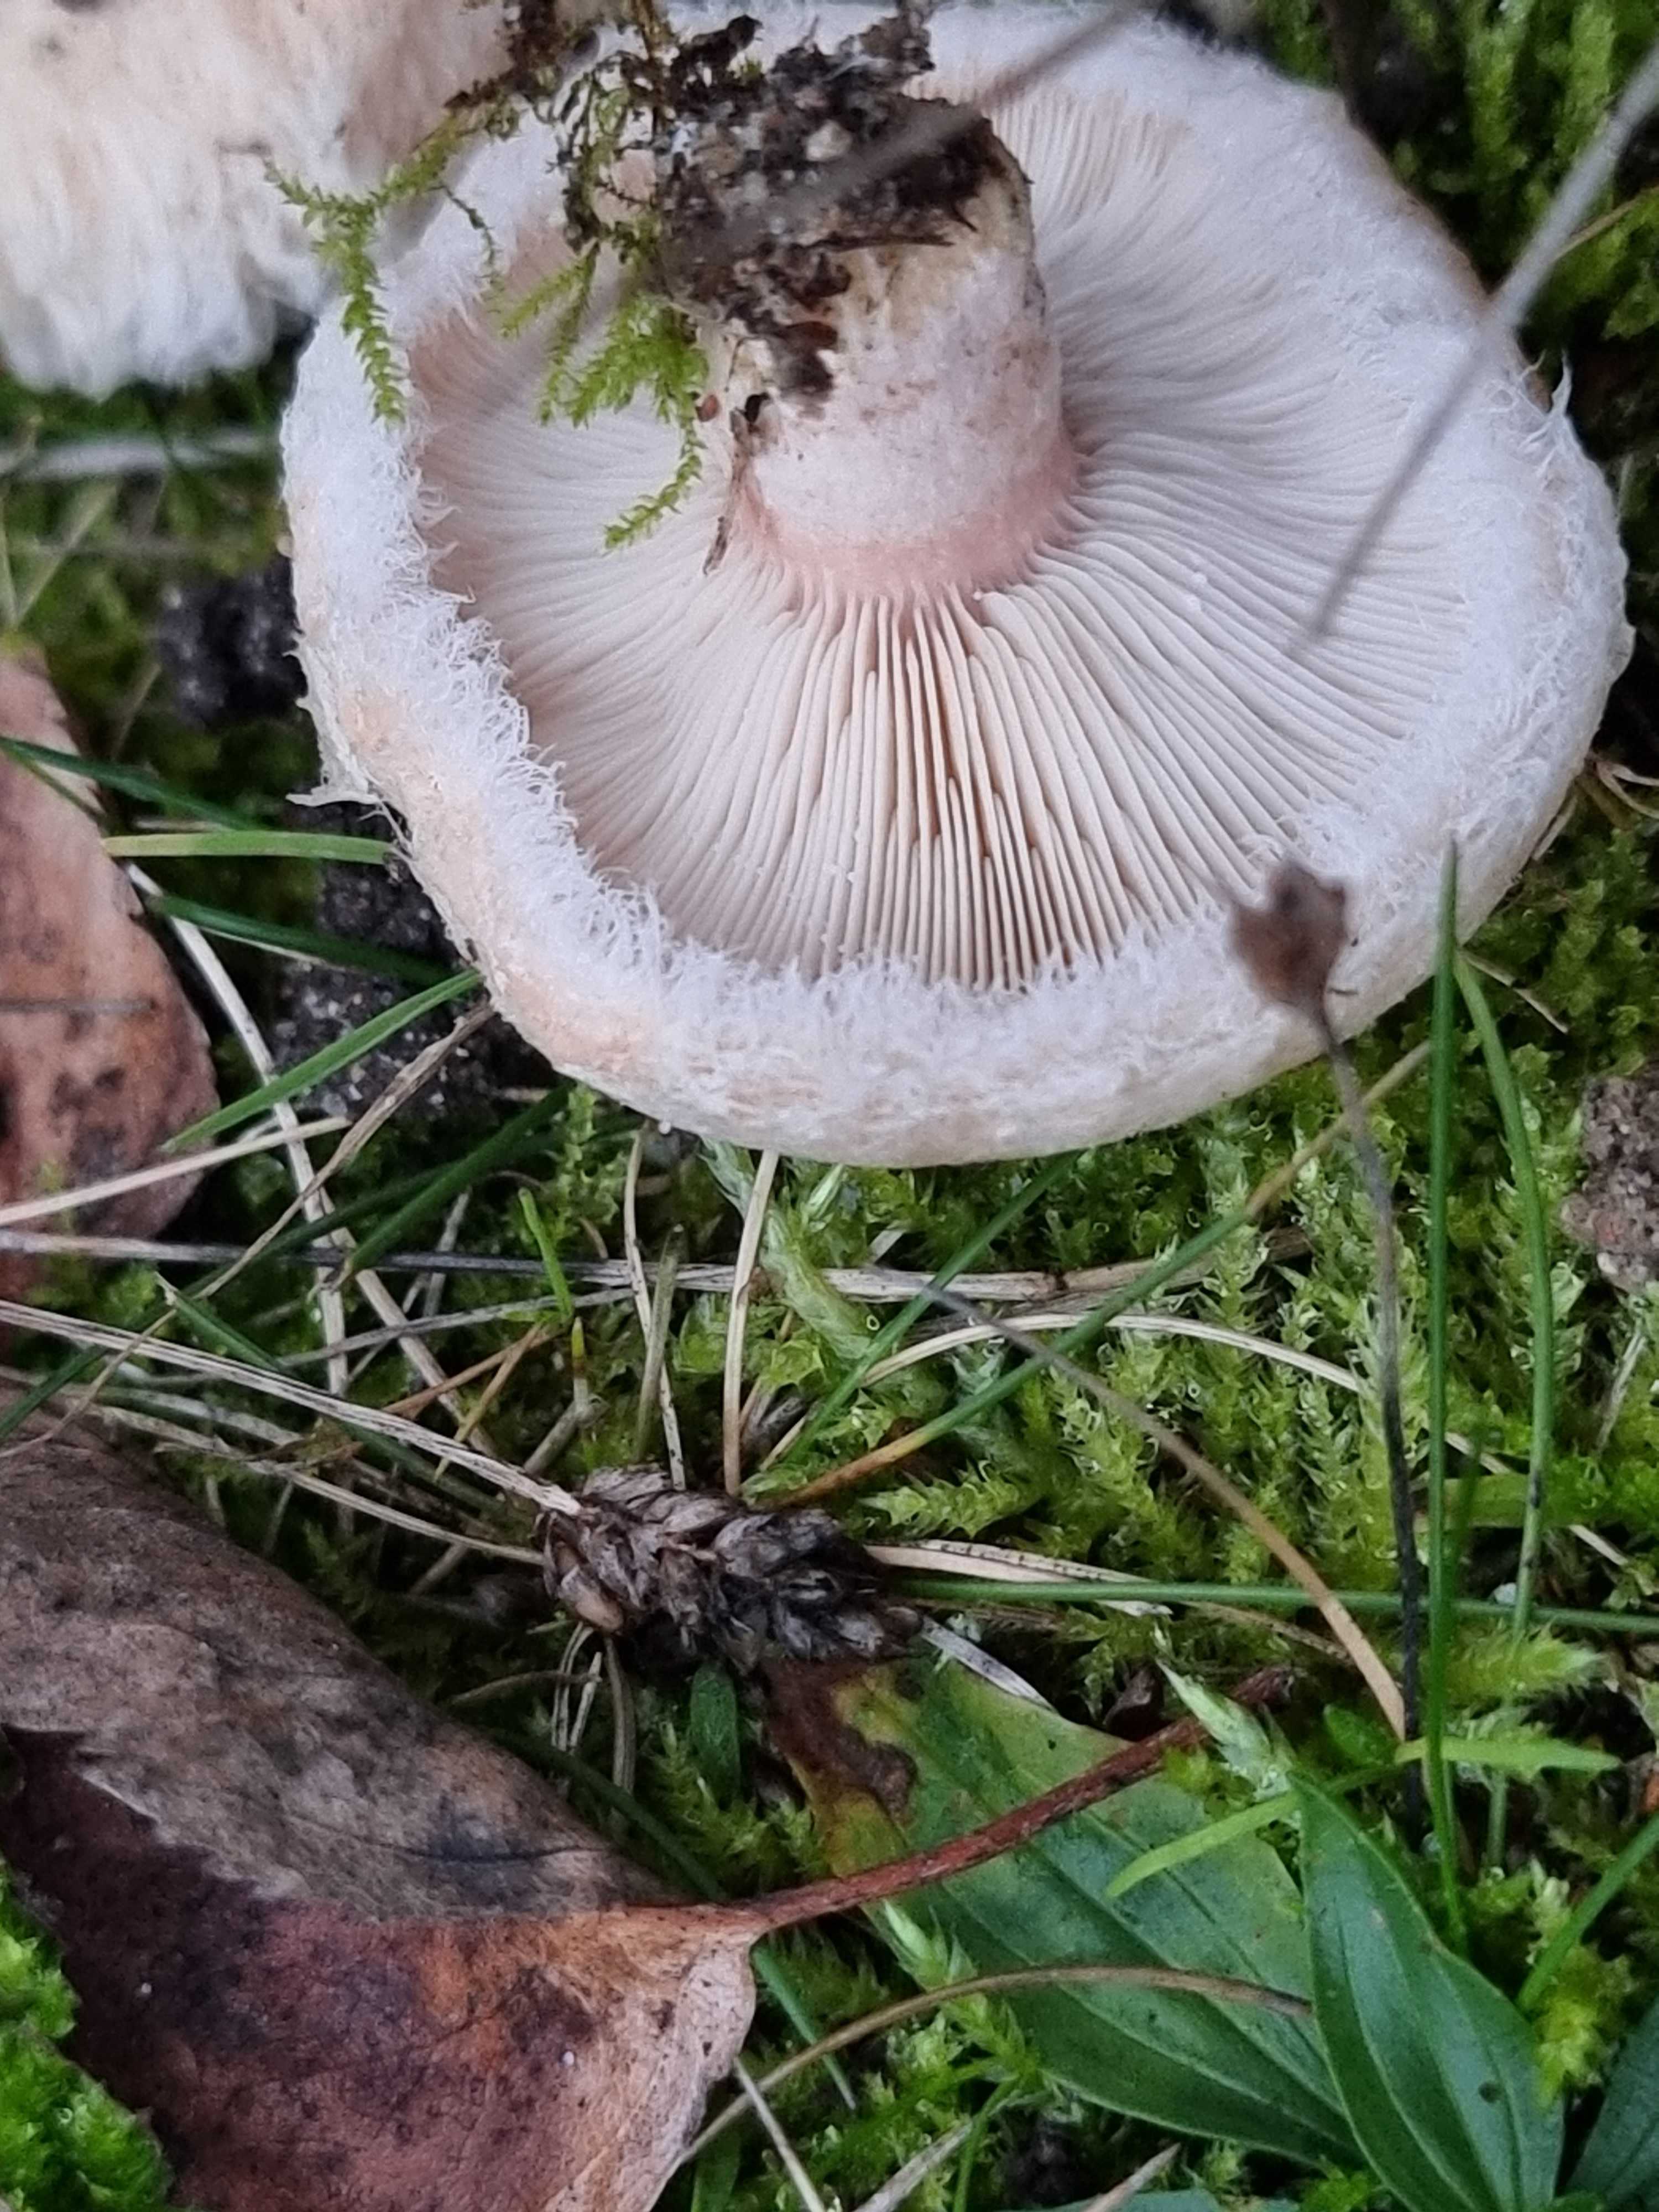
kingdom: Fungi
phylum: Basidiomycota
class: Agaricomycetes
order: Russulales
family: Russulaceae
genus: Lactarius
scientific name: Lactarius pubescens
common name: dunet mælkehat
